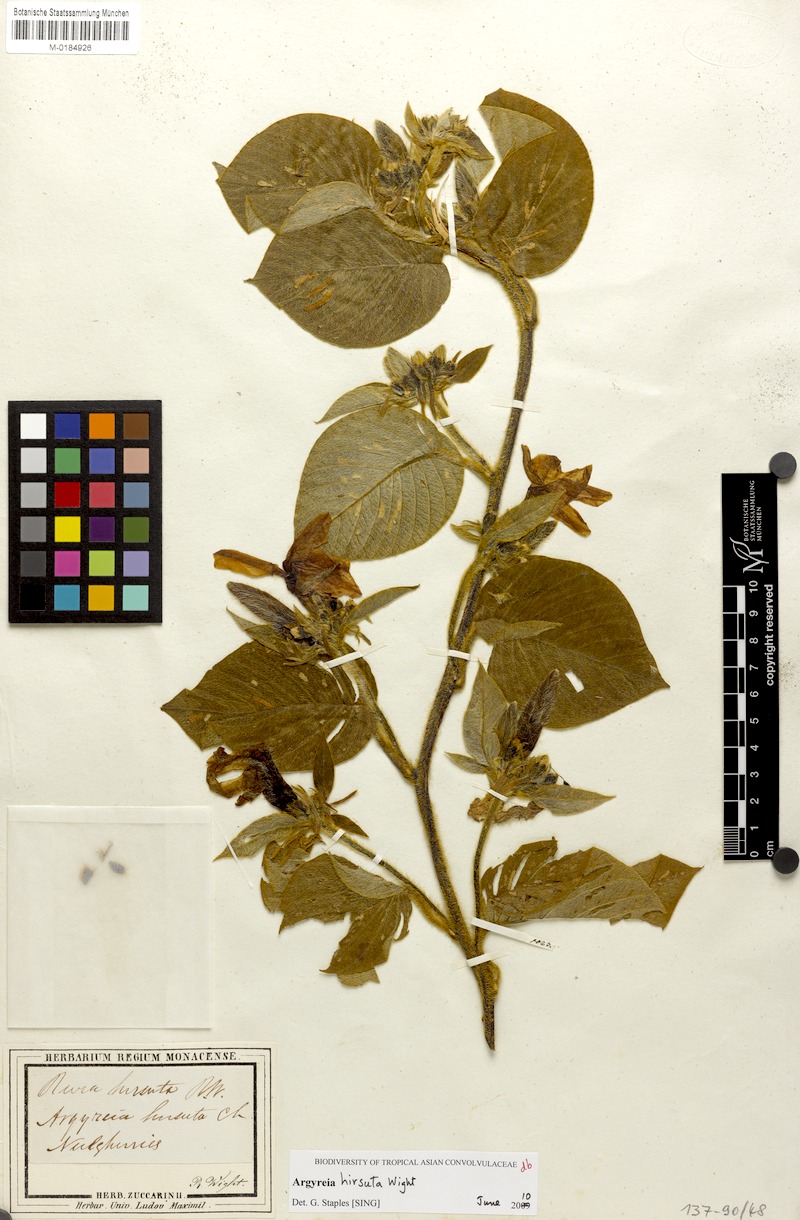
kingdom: Plantae
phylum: Tracheophyta
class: Magnoliopsida
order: Solanales
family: Convolvulaceae
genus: Argyreia
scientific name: Argyreia hirsuta
